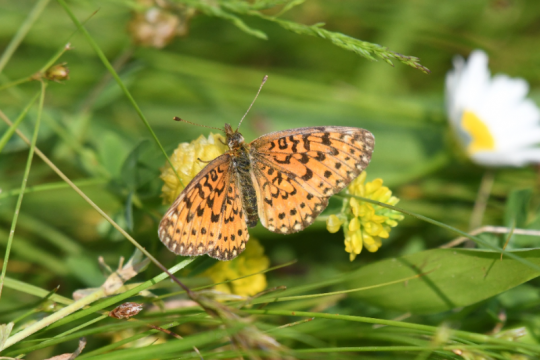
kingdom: Animalia
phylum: Arthropoda
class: Insecta
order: Lepidoptera
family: Nymphalidae
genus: Boloria
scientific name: Boloria selene
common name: Silver-bordered Fritillary
